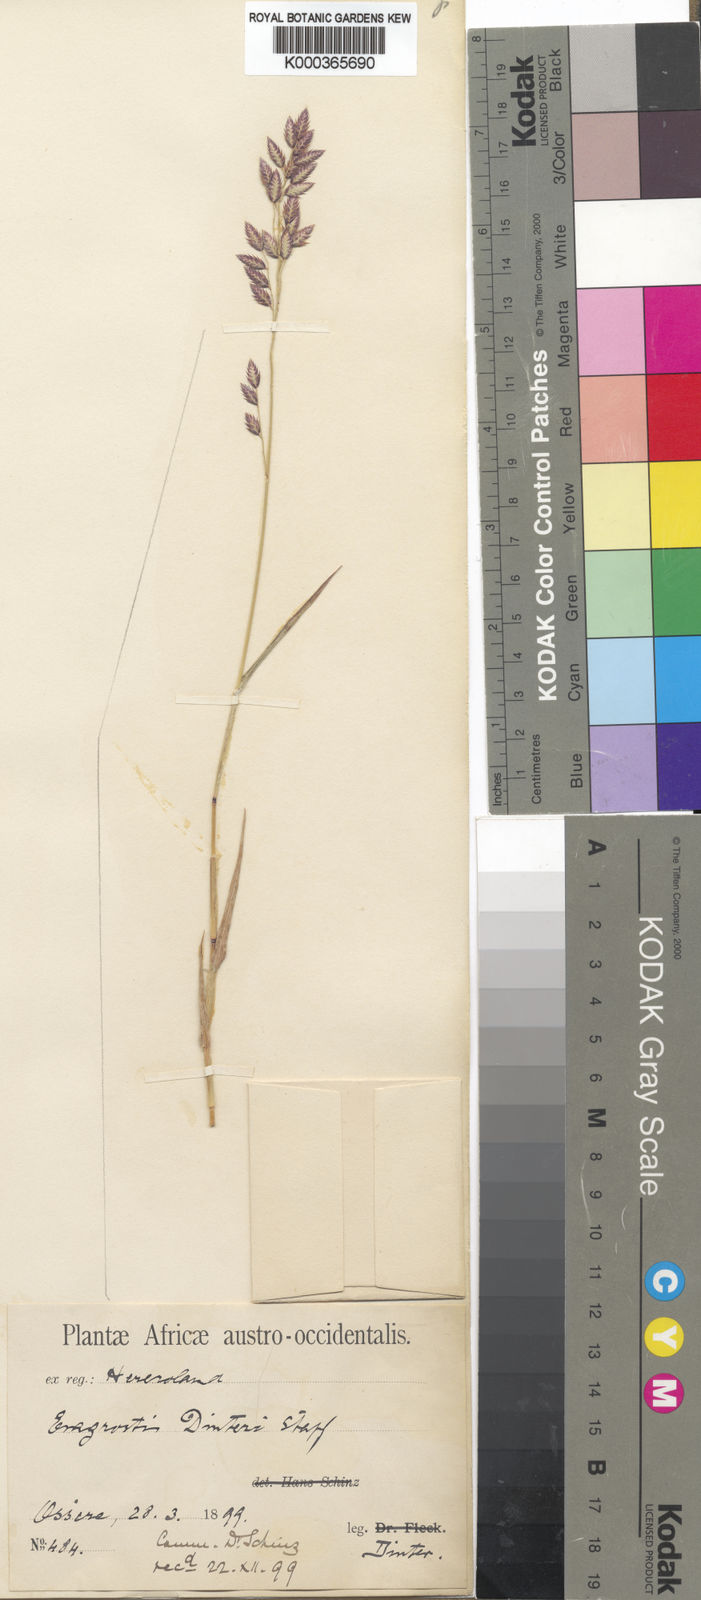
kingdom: Plantae
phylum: Tracheophyta
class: Liliopsida
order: Poales
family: Poaceae
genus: Eragrostis
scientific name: Eragrostis dinteri
